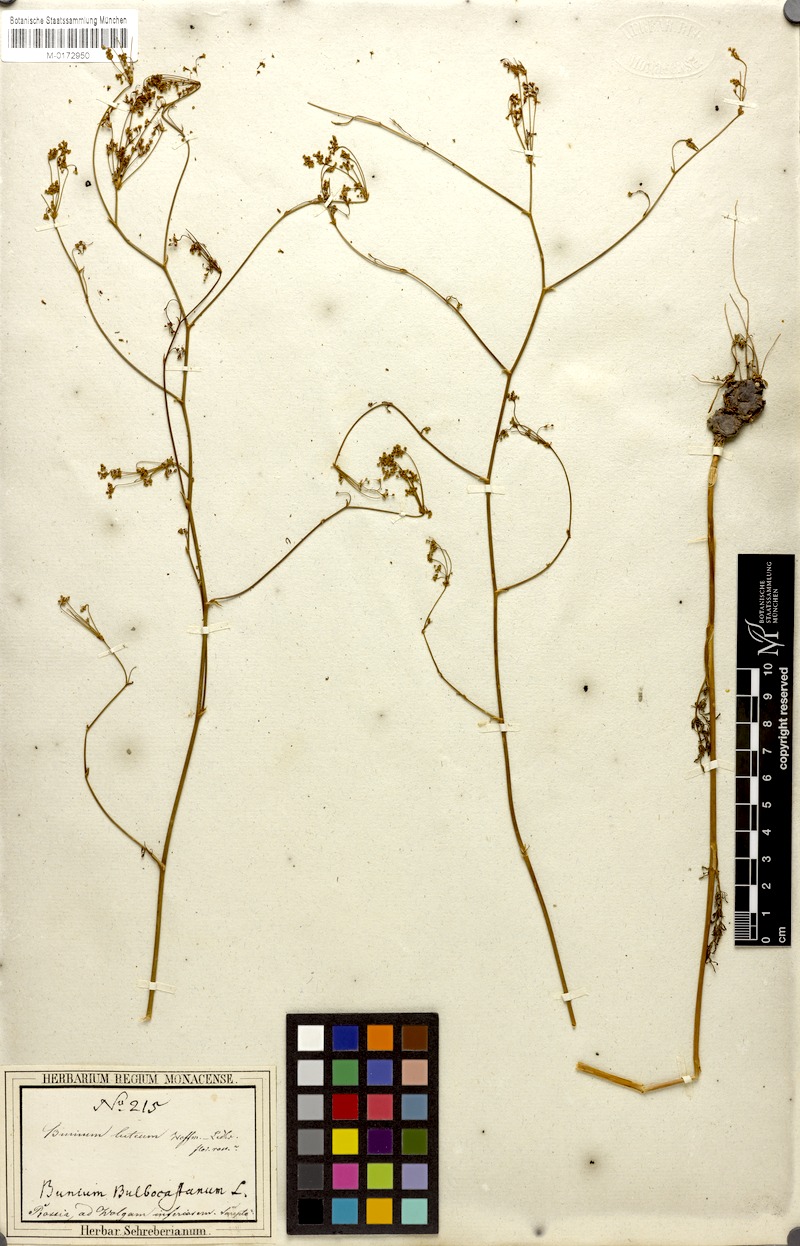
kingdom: Plantae
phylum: Tracheophyta
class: Magnoliopsida
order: Apiales
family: Apiaceae
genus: Elaeosticta
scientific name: Elaeosticta lutea
